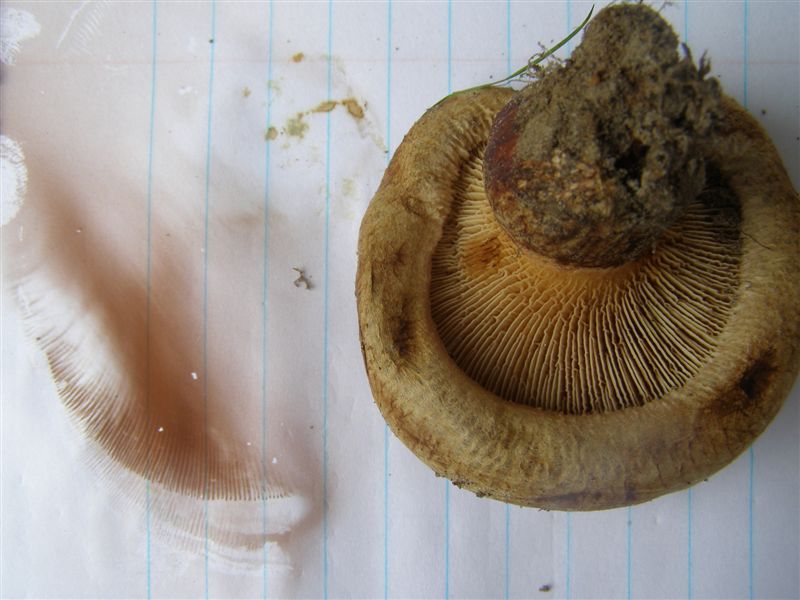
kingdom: Fungi
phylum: Basidiomycota
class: Agaricomycetes
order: Boletales
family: Paxillaceae
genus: Paxillus
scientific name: Paxillus obscurisporus
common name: mahognisporet netbladhat
